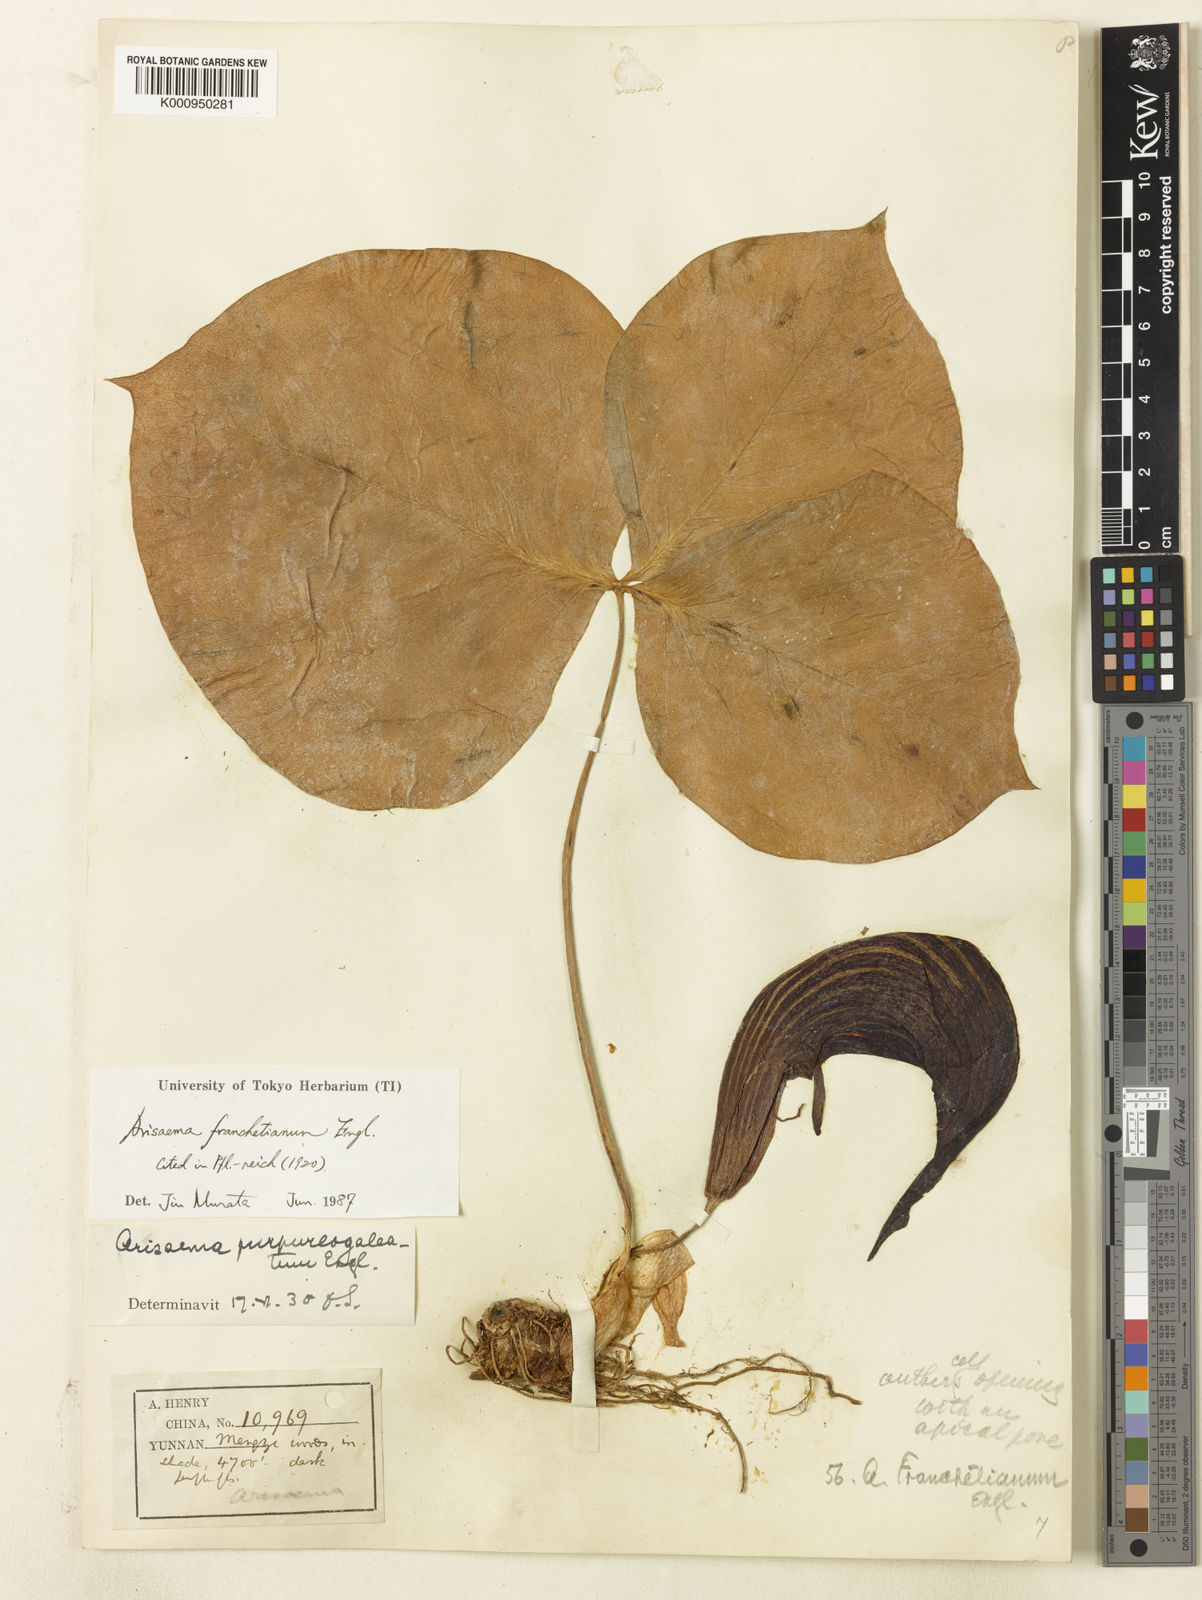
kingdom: Plantae
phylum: Tracheophyta
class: Liliopsida
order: Alismatales
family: Araceae
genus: Arisaema
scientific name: Arisaema franchetianum
